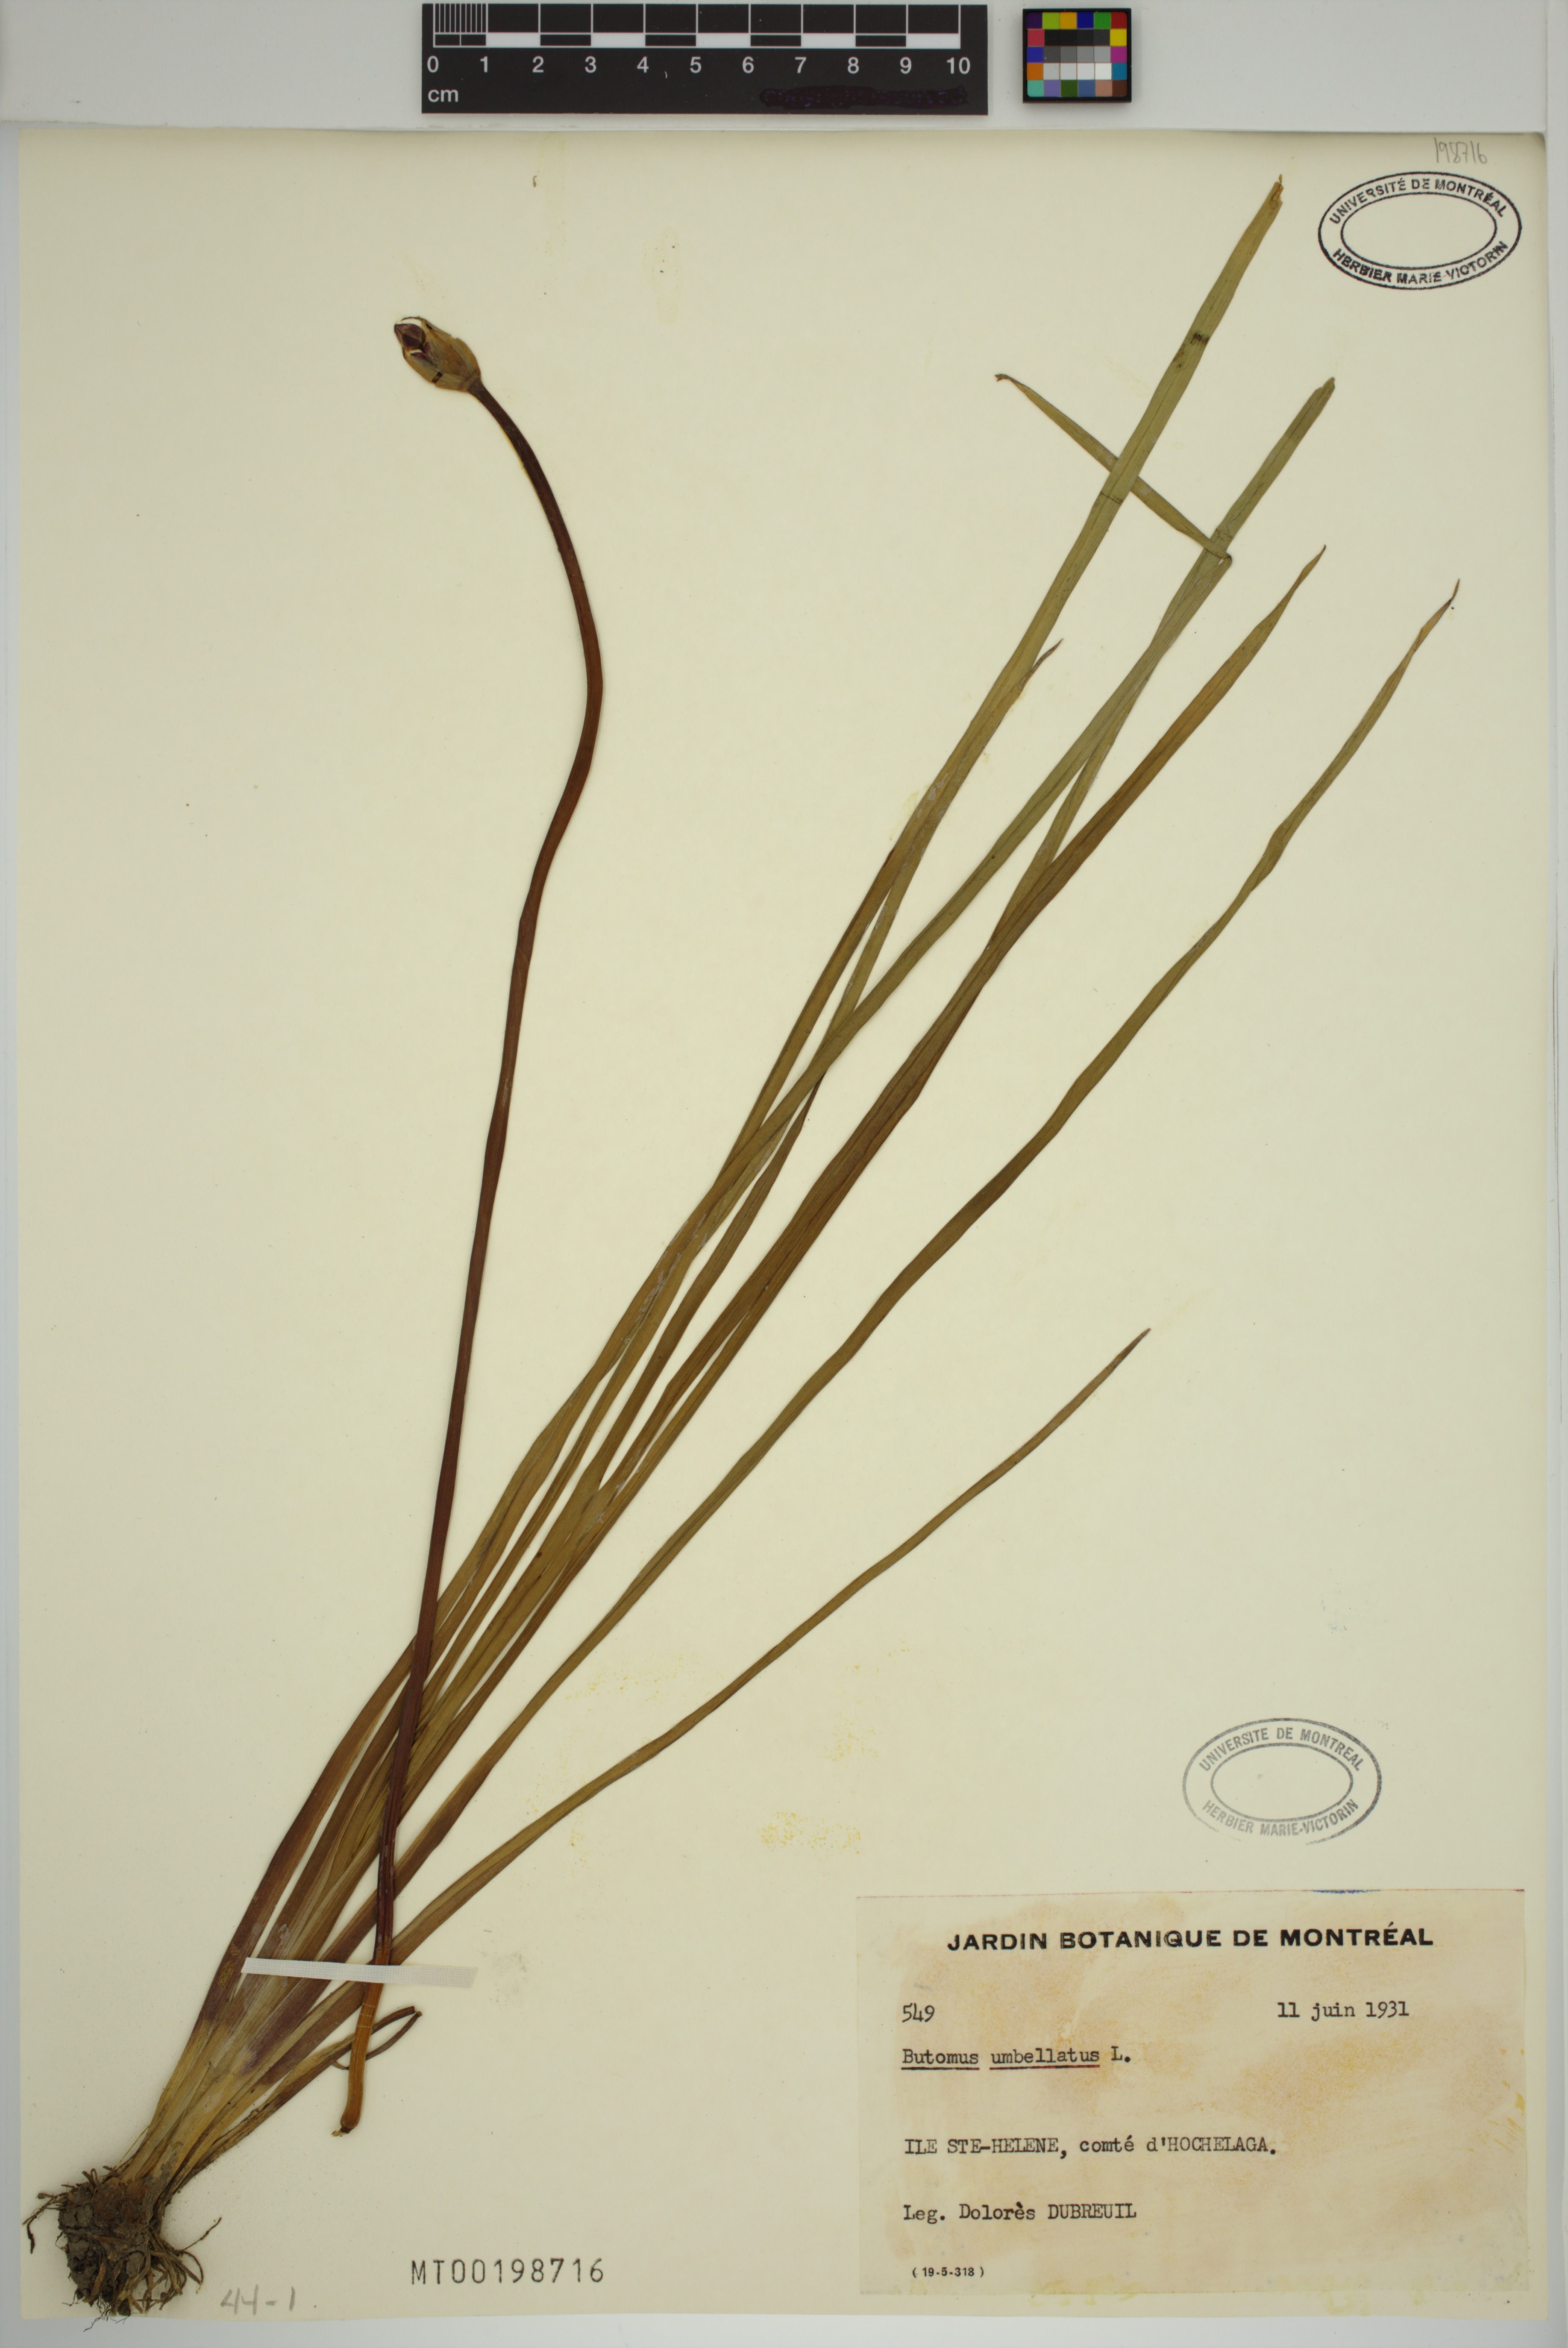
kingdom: Plantae
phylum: Tracheophyta
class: Liliopsida
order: Alismatales
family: Butomaceae
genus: Butomus
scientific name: Butomus umbellatus
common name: Flowering-rush
